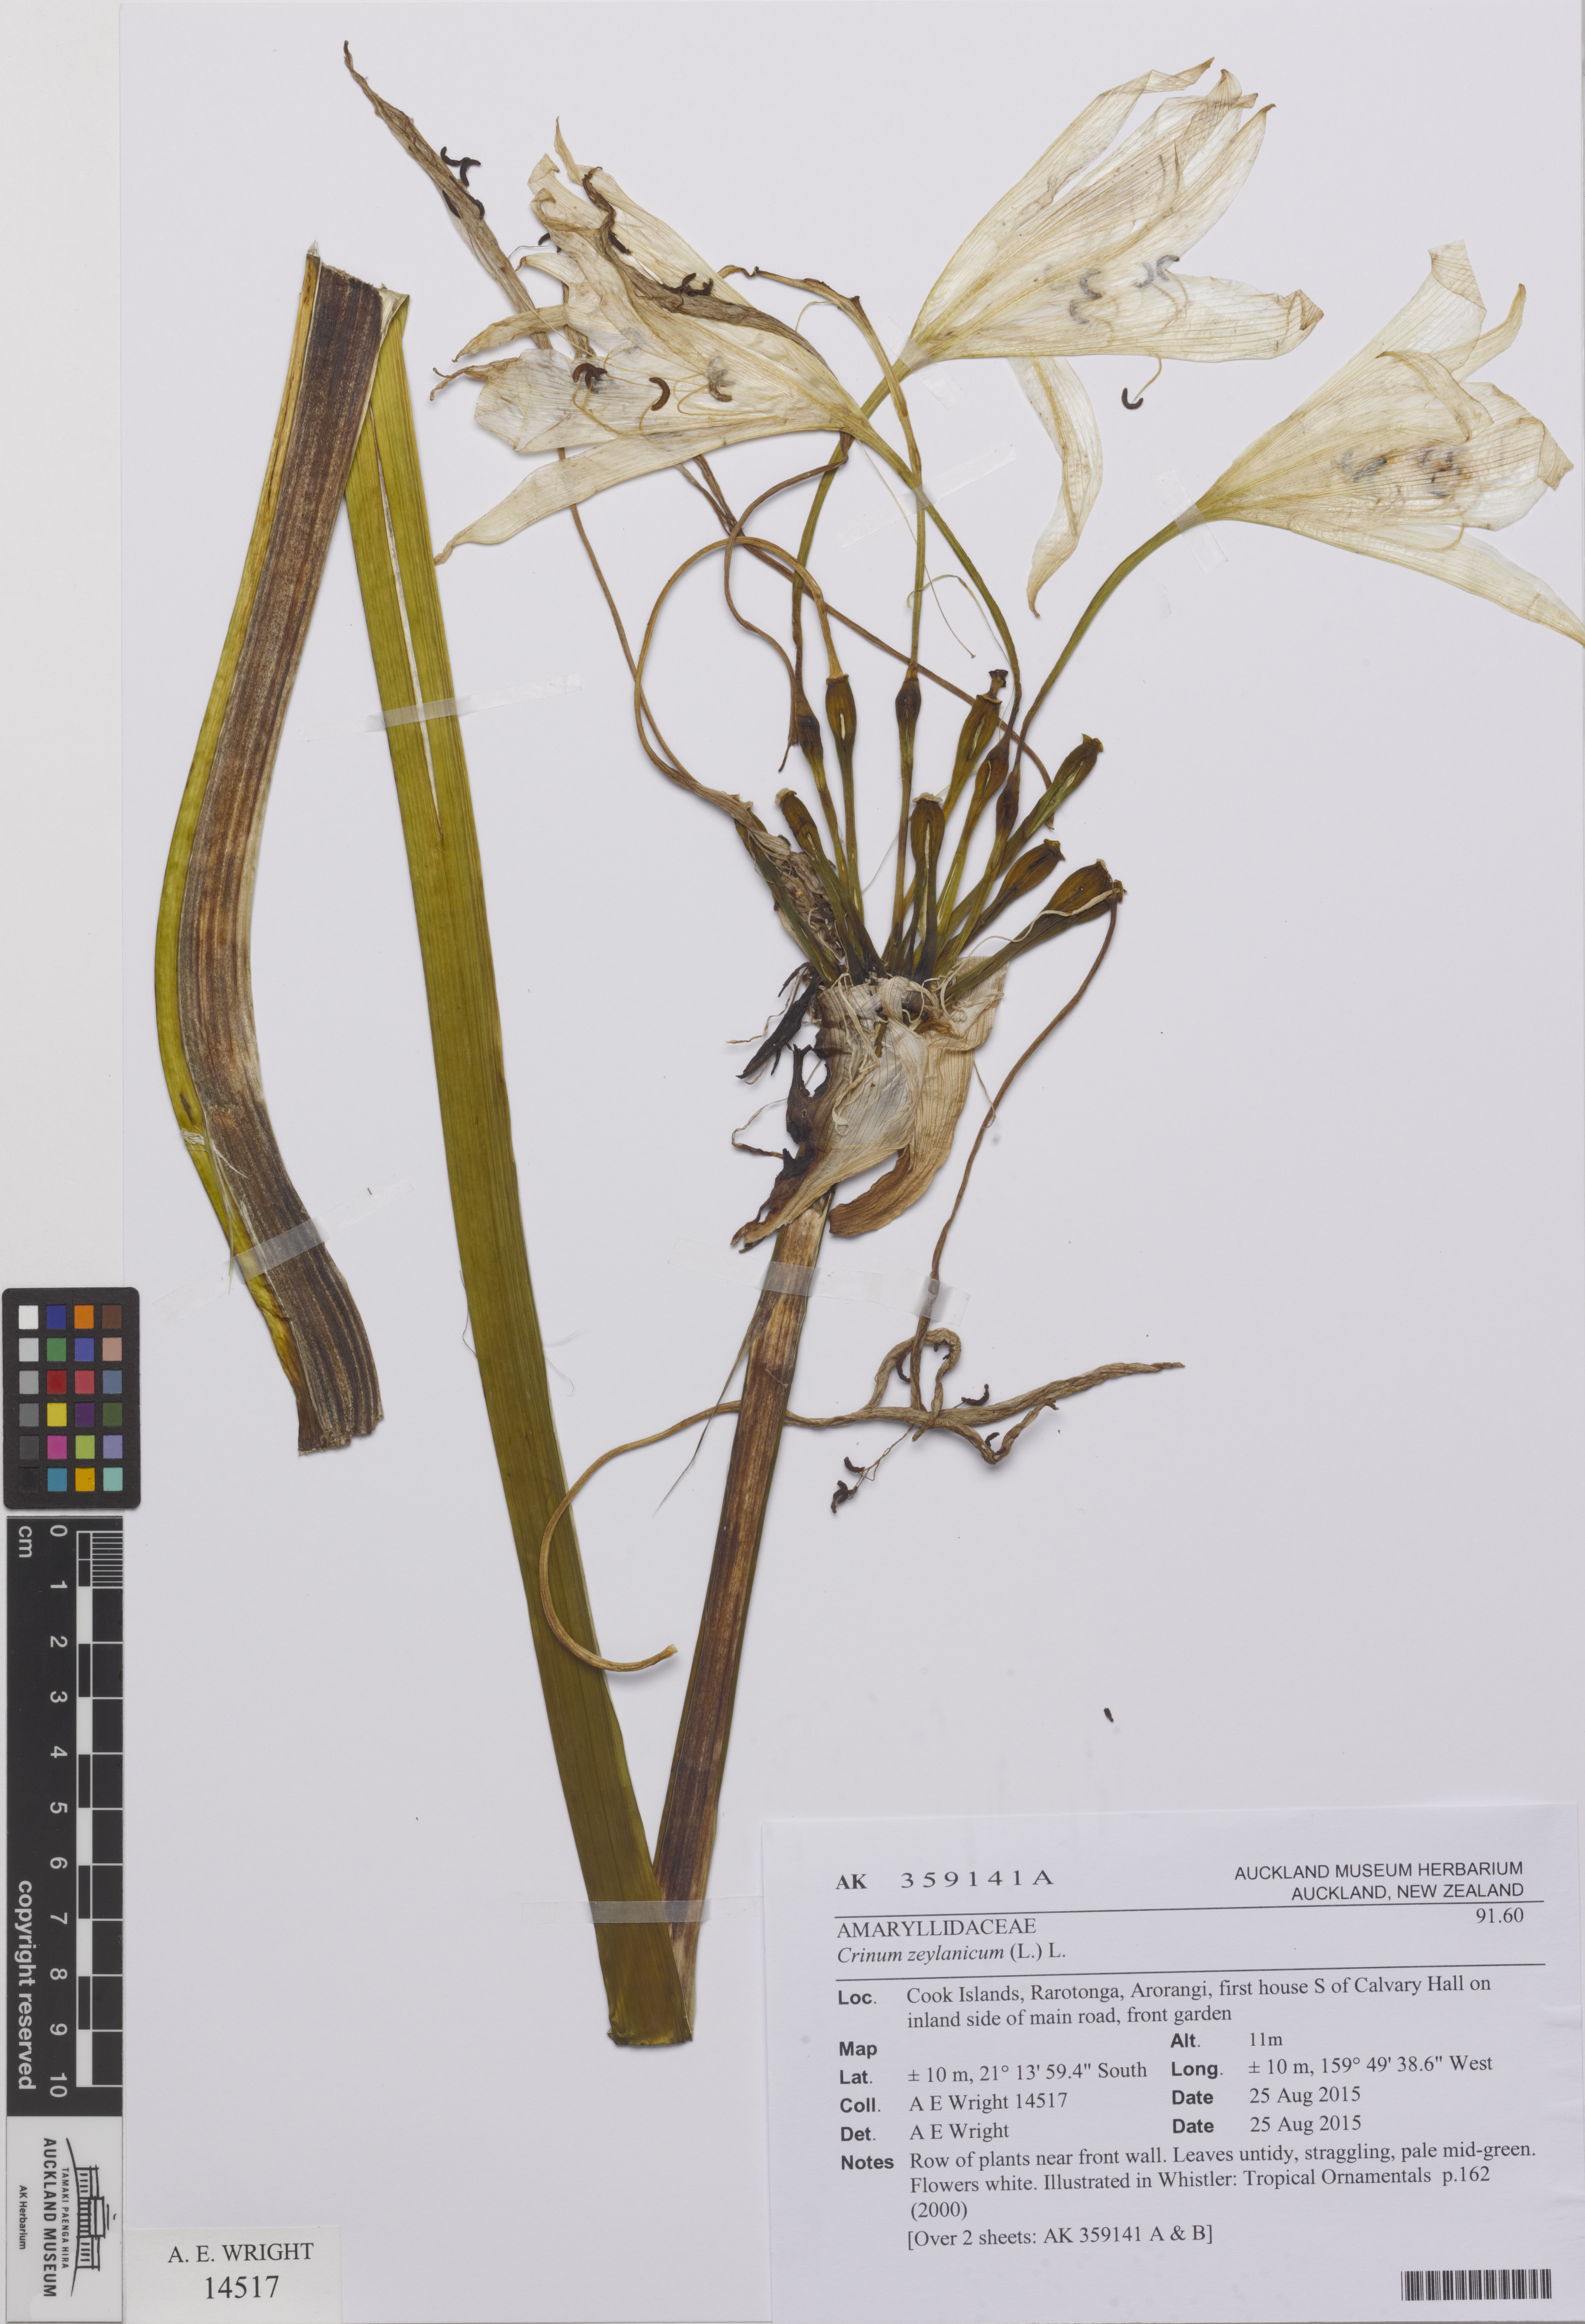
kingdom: Plantae
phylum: Tracheophyta
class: Liliopsida
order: Asparagales
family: Amaryllidaceae
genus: Crinum
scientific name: Crinum zeylanicum
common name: Ceylon swamplily
